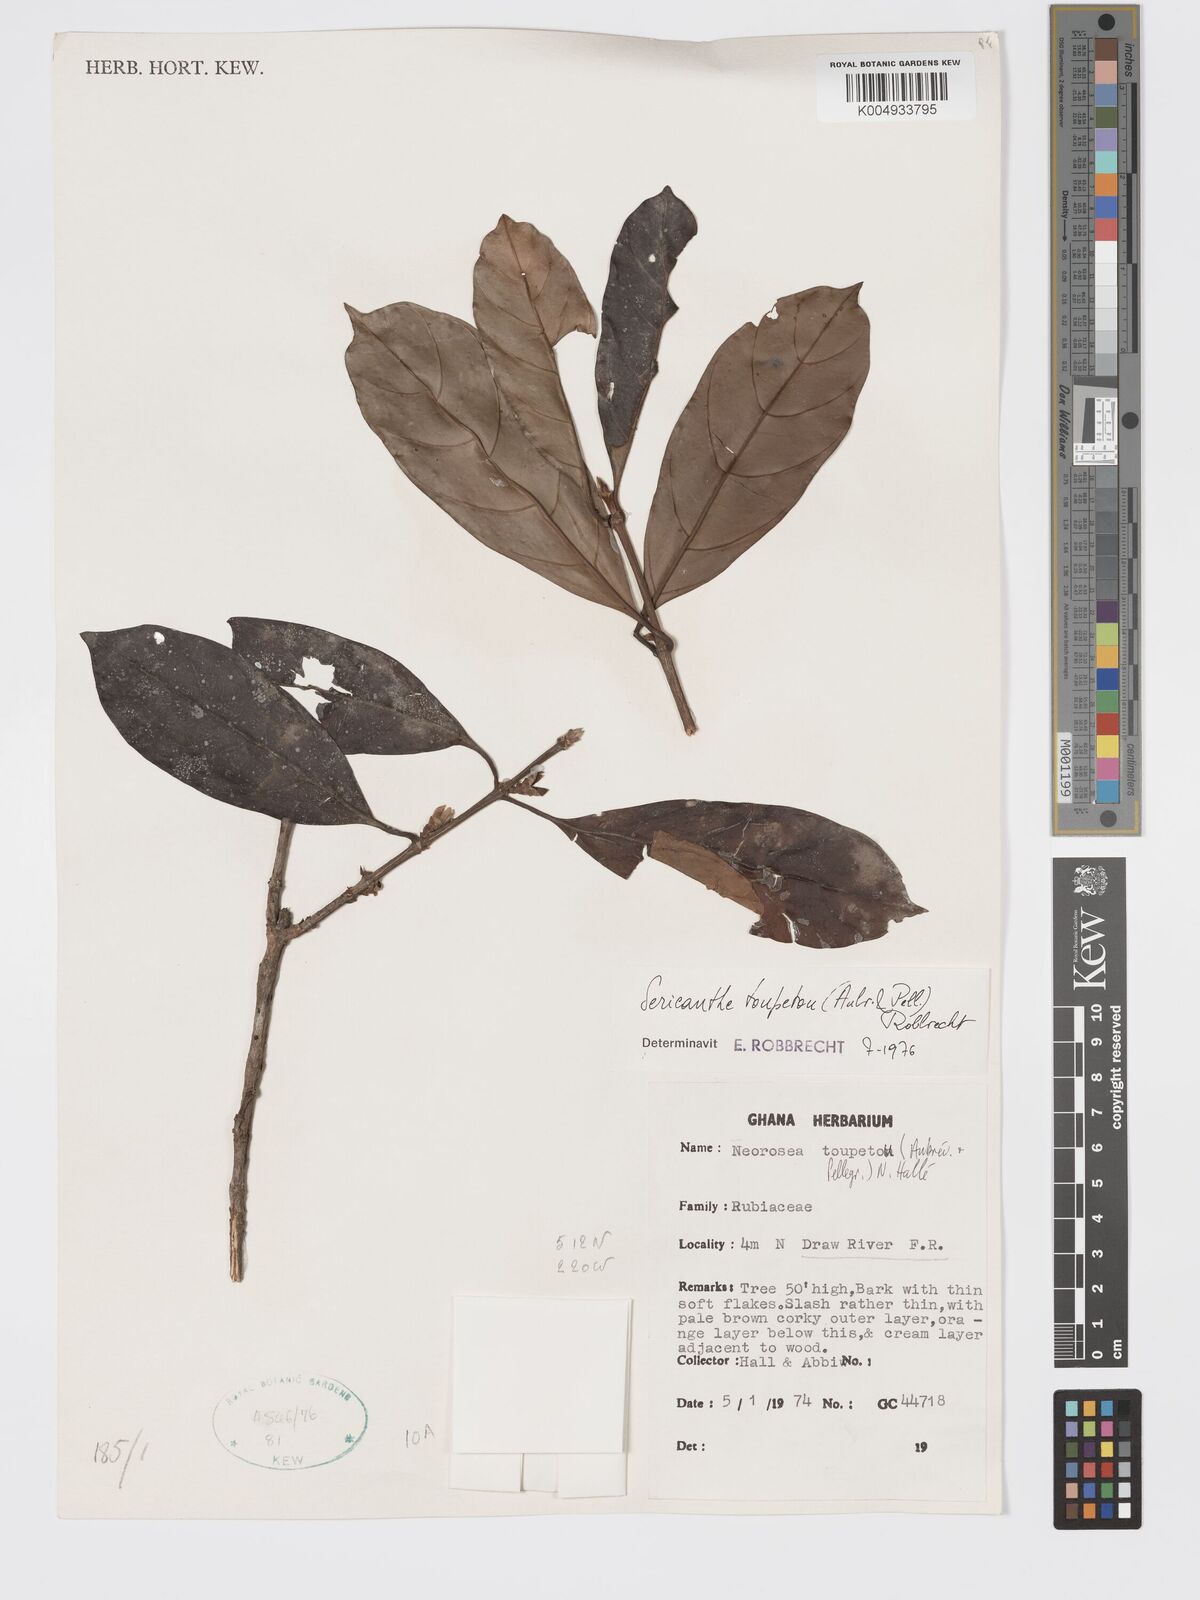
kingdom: Plantae
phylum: Tracheophyta
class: Magnoliopsida
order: Gentianales
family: Rubiaceae
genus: Sericanthe
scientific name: Sericanthe toupetou
